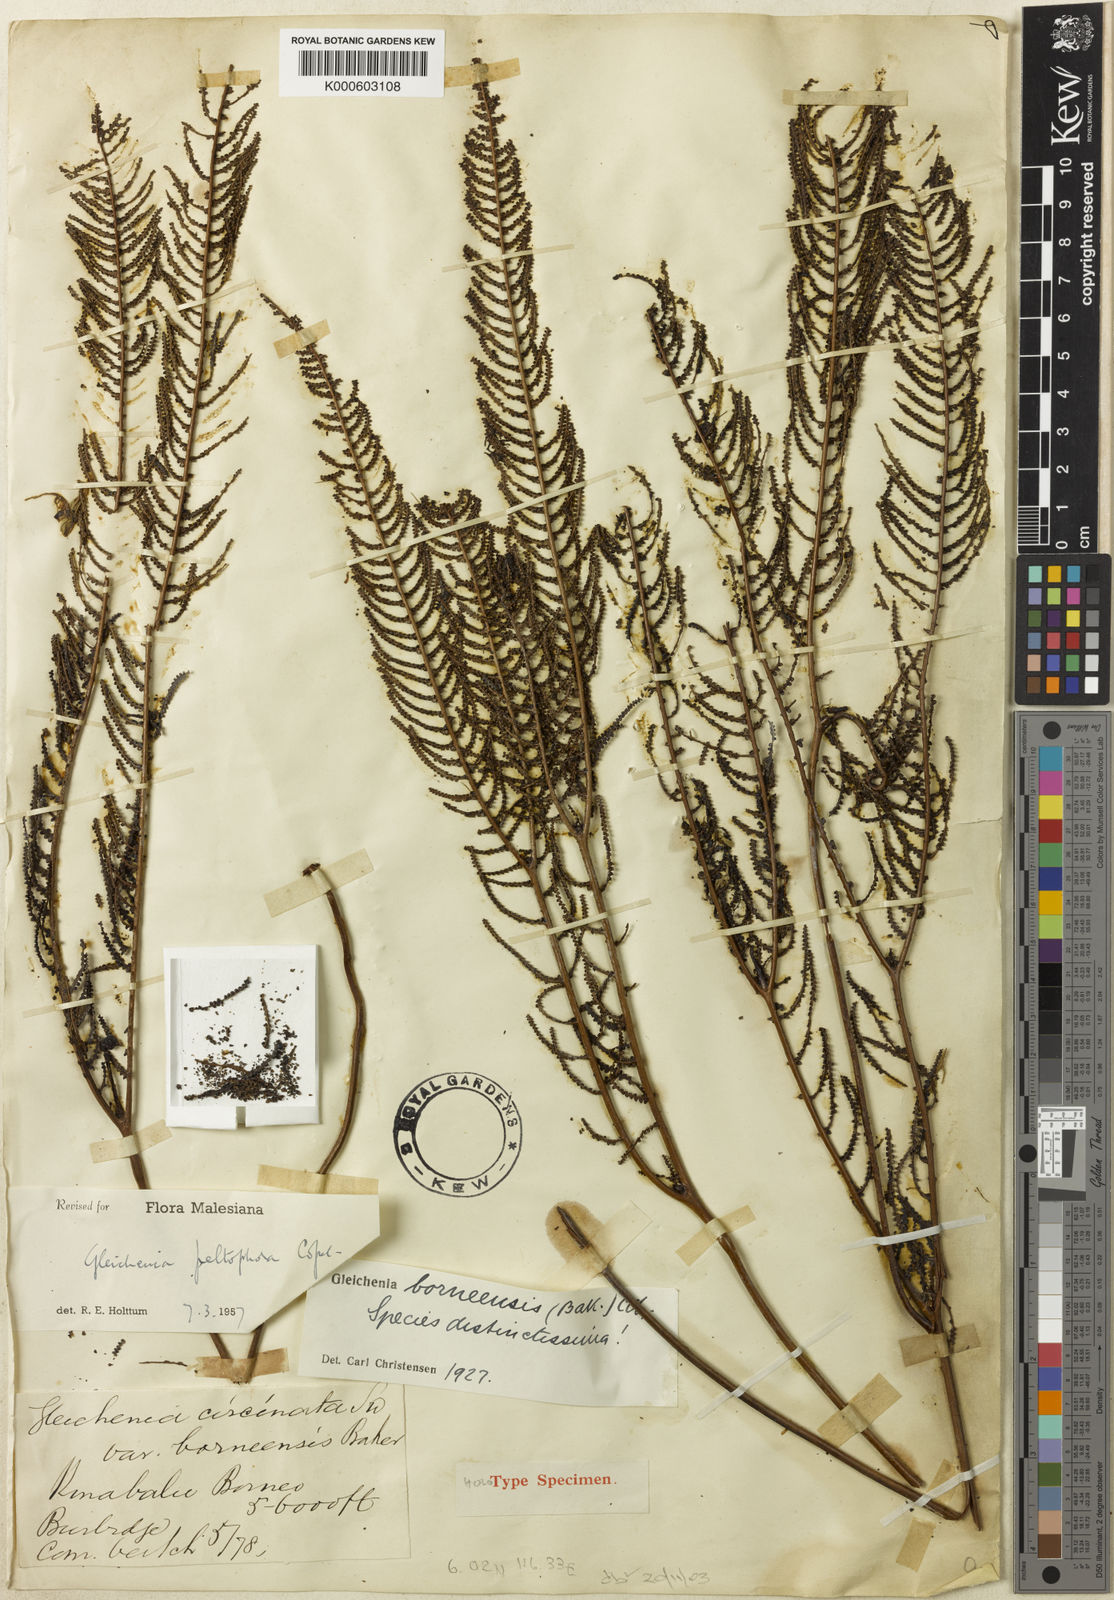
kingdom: Plantae
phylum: Tracheophyta
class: Polypodiopsida
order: Gleicheniales
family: Gleicheniaceae
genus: Gleichenia
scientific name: Gleichenia peltophora
